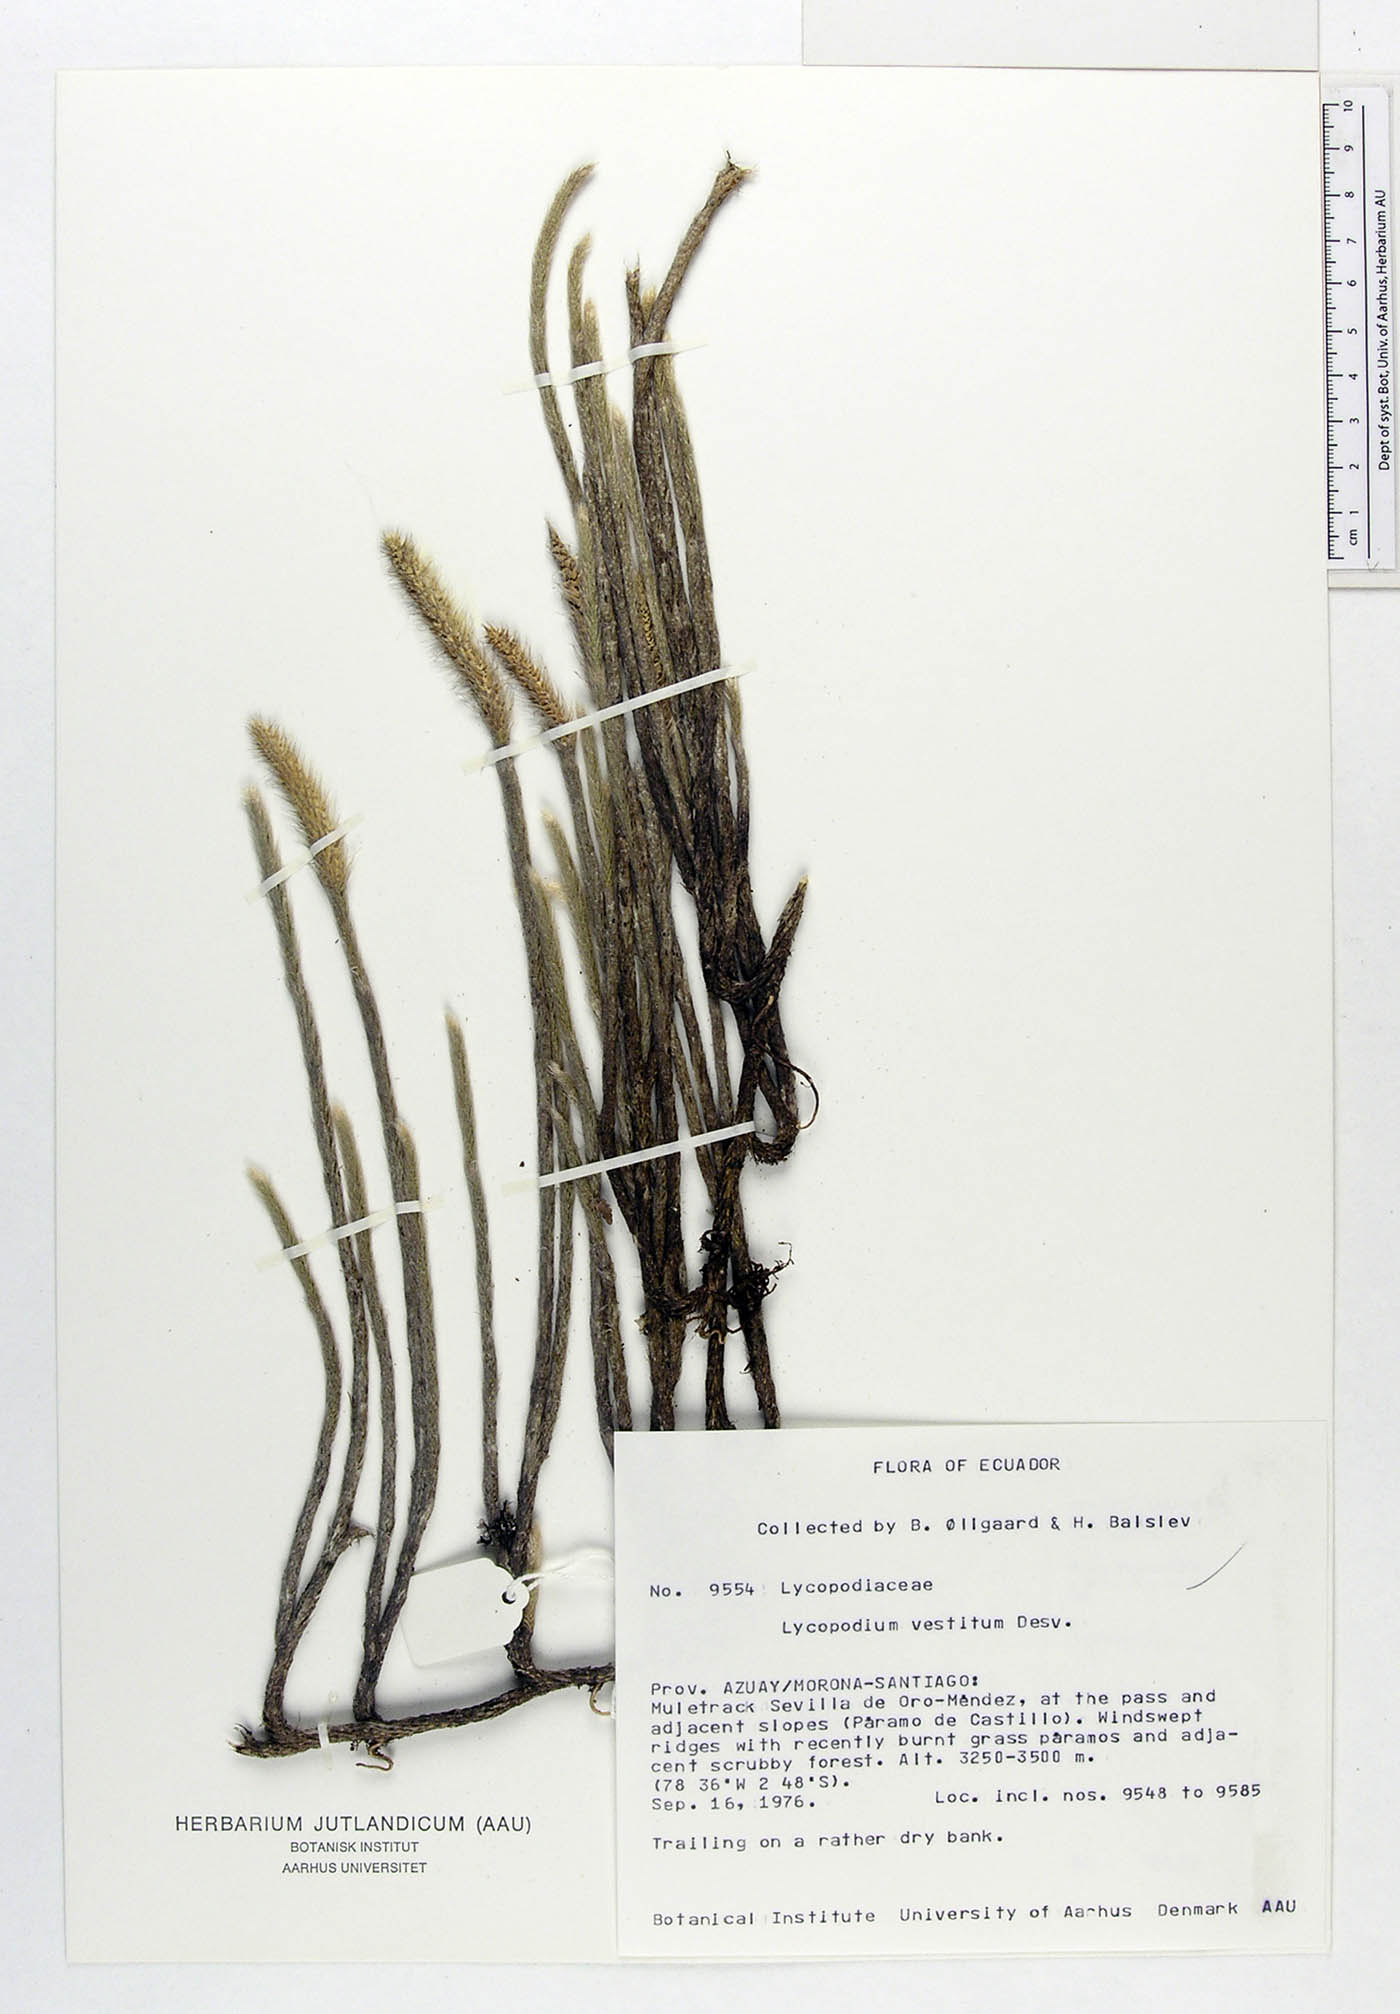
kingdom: Plantae
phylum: Tracheophyta
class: Lycopodiopsida
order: Lycopodiales
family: Lycopodiaceae
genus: Lycopodium
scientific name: Lycopodium vestitum
